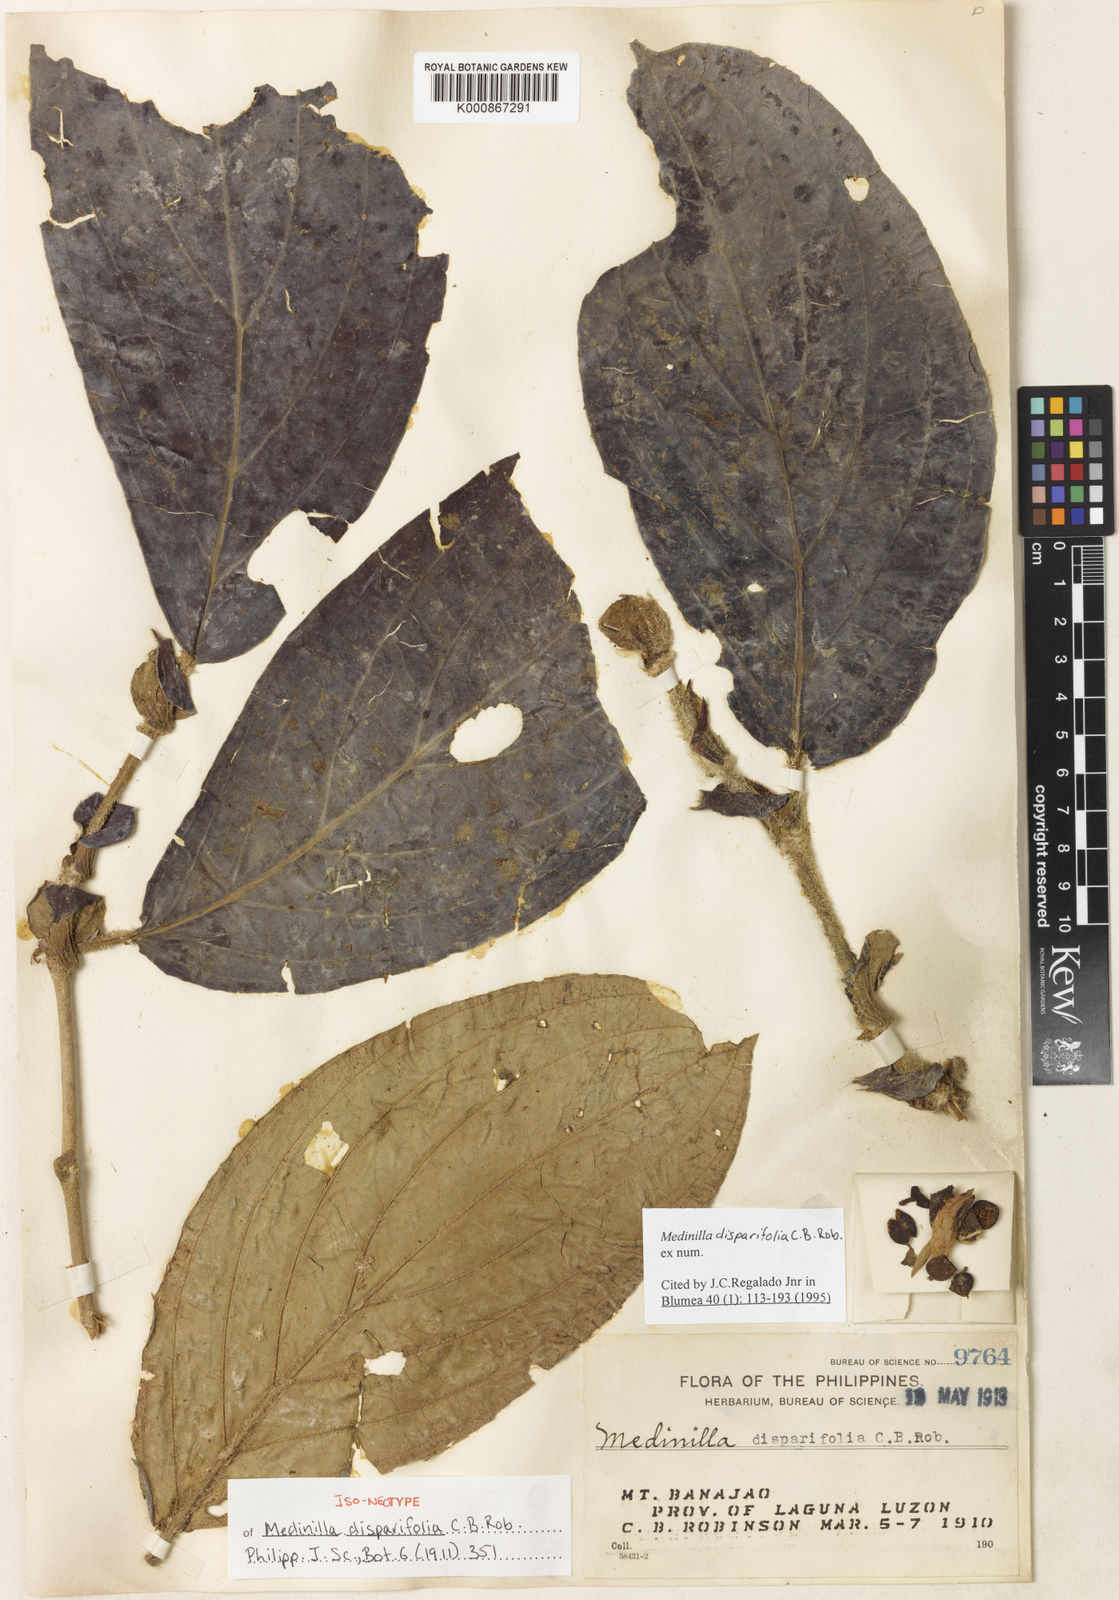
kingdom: Plantae
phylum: Tracheophyta
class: Magnoliopsida
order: Myrtales
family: Melastomataceae
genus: Medinilla
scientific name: Medinilla disparifolia
